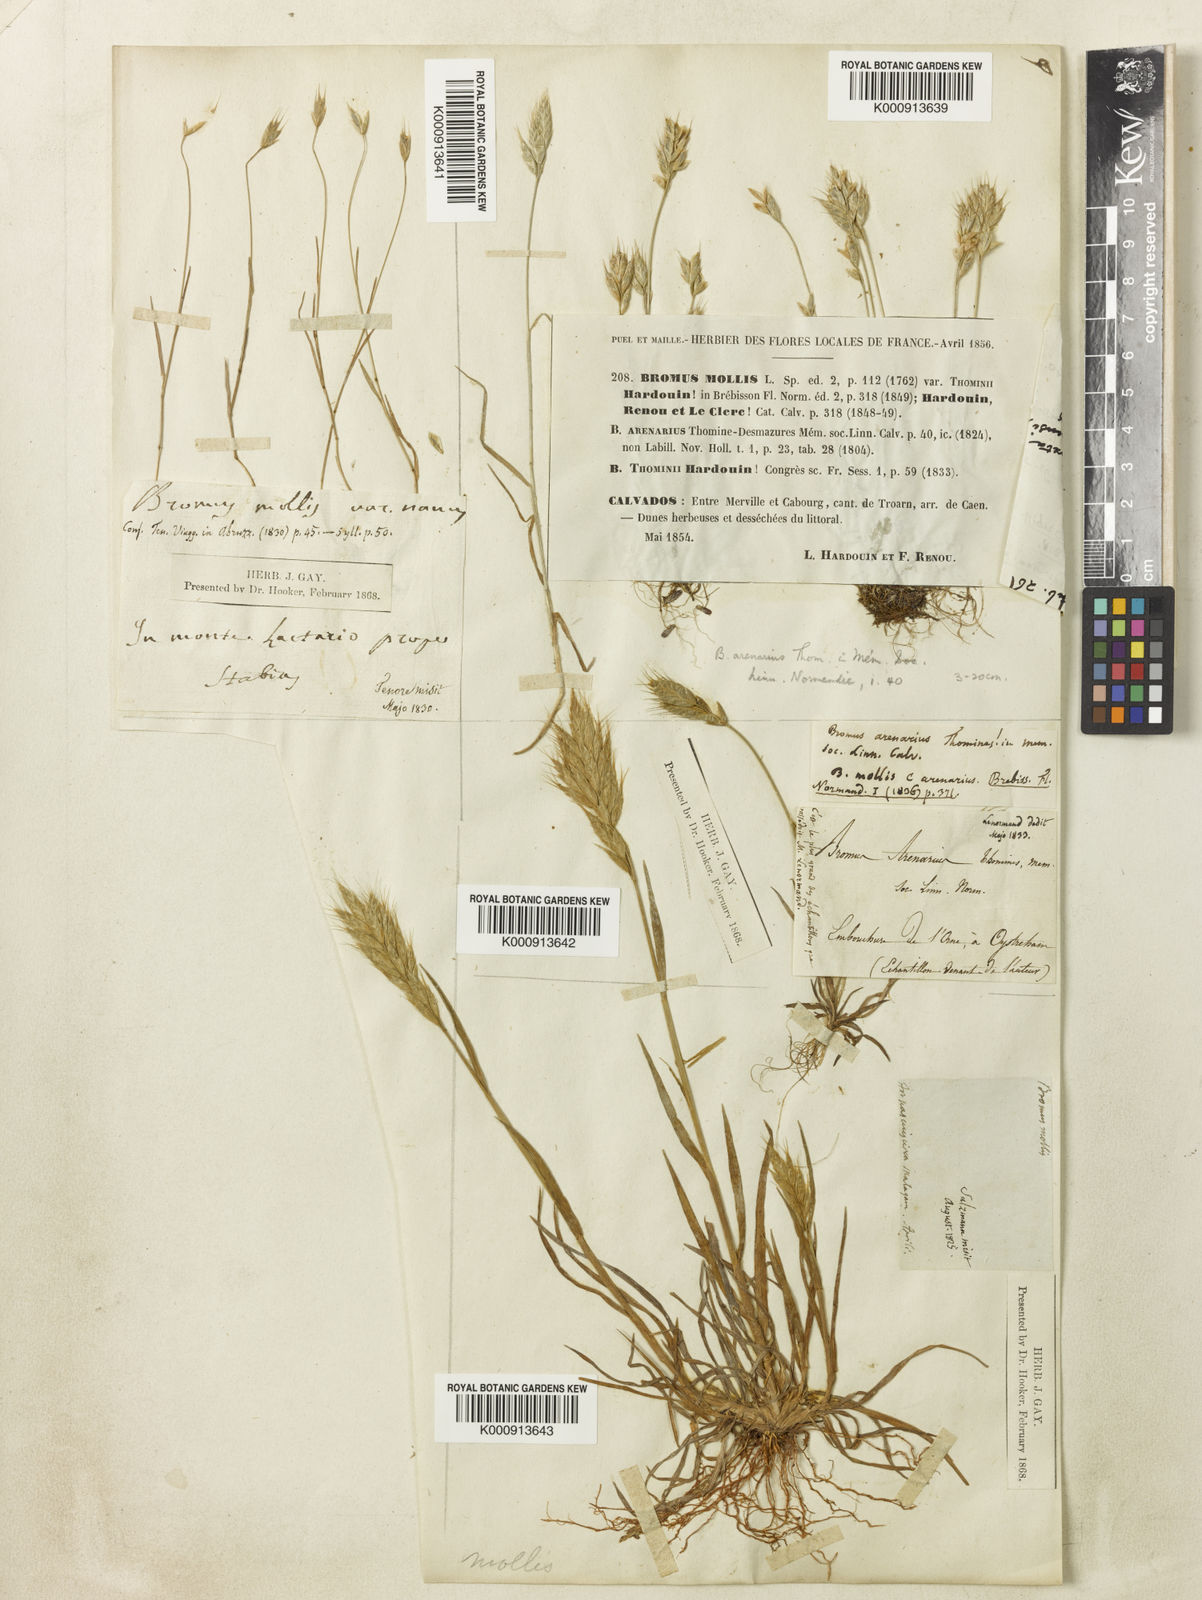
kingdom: Plantae
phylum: Tracheophyta
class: Liliopsida
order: Poales
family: Poaceae
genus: Bromus
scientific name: Bromus hordeaceus
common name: Soft brome
